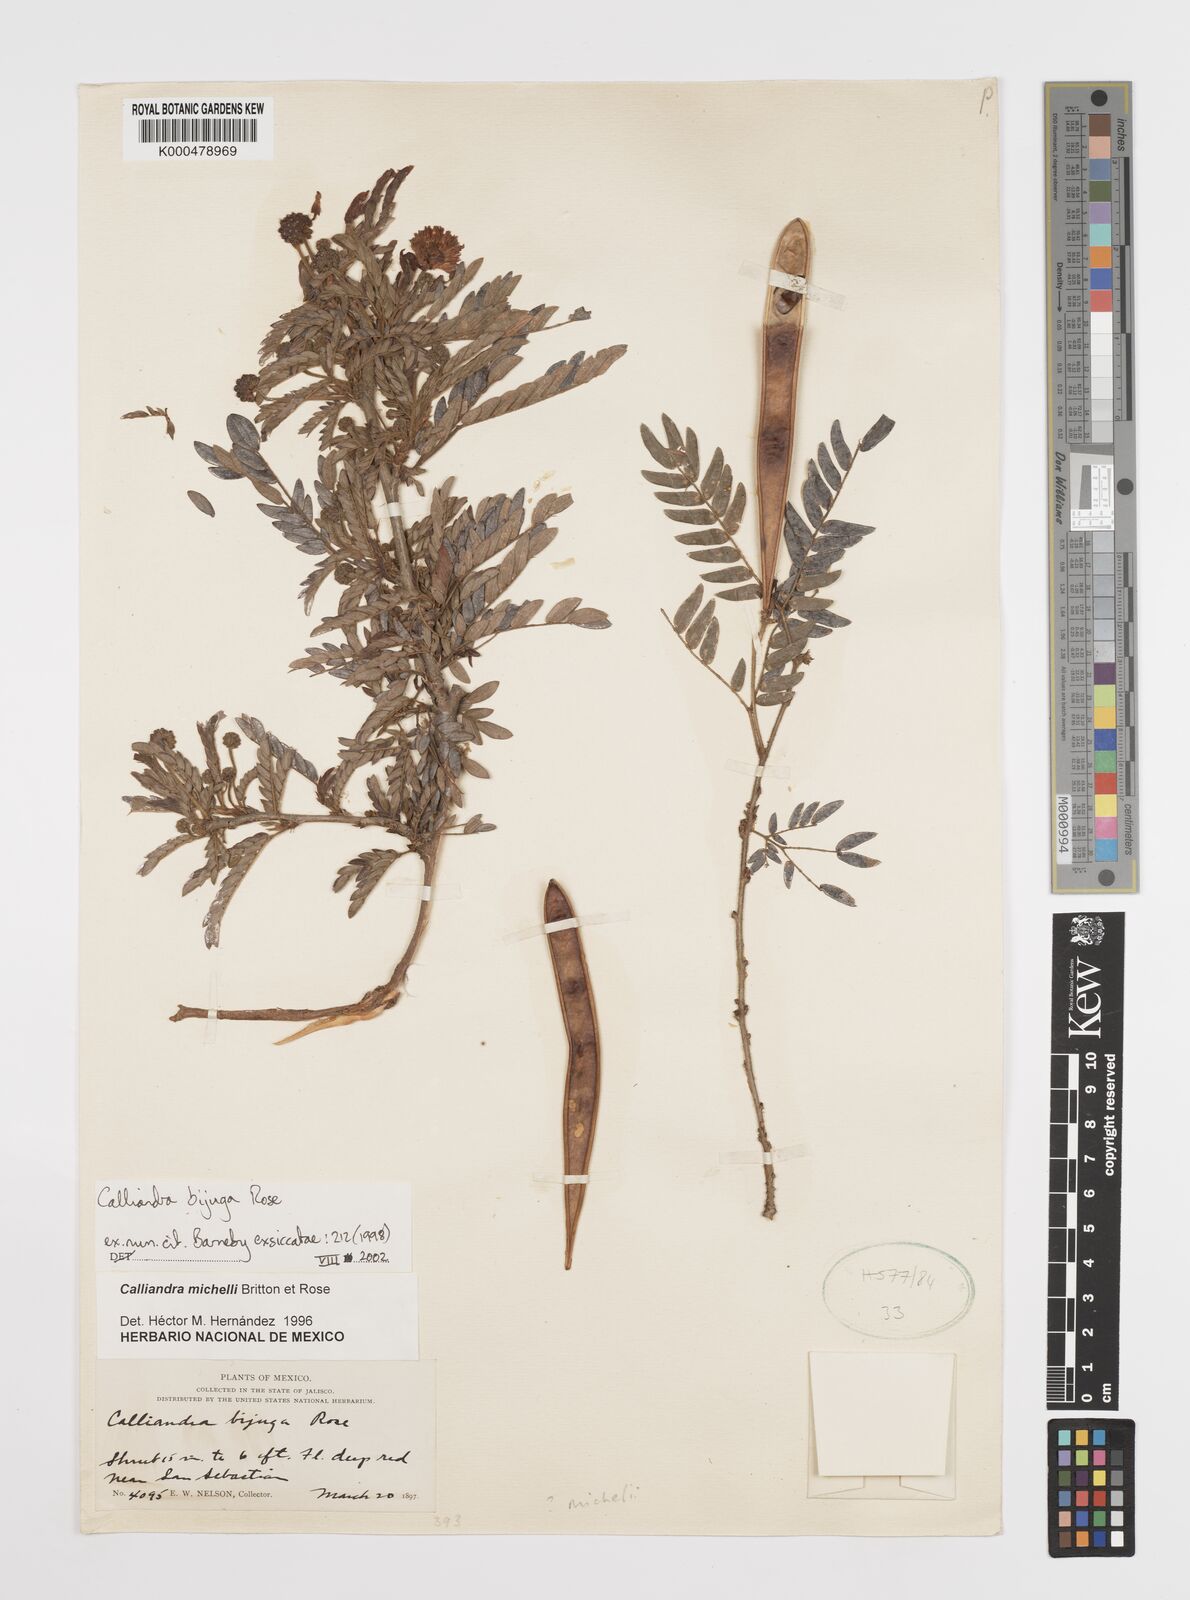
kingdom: Plantae
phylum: Tracheophyta
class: Magnoliopsida
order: Fabales
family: Fabaceae
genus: Calliandra
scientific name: Calliandra bijuga
